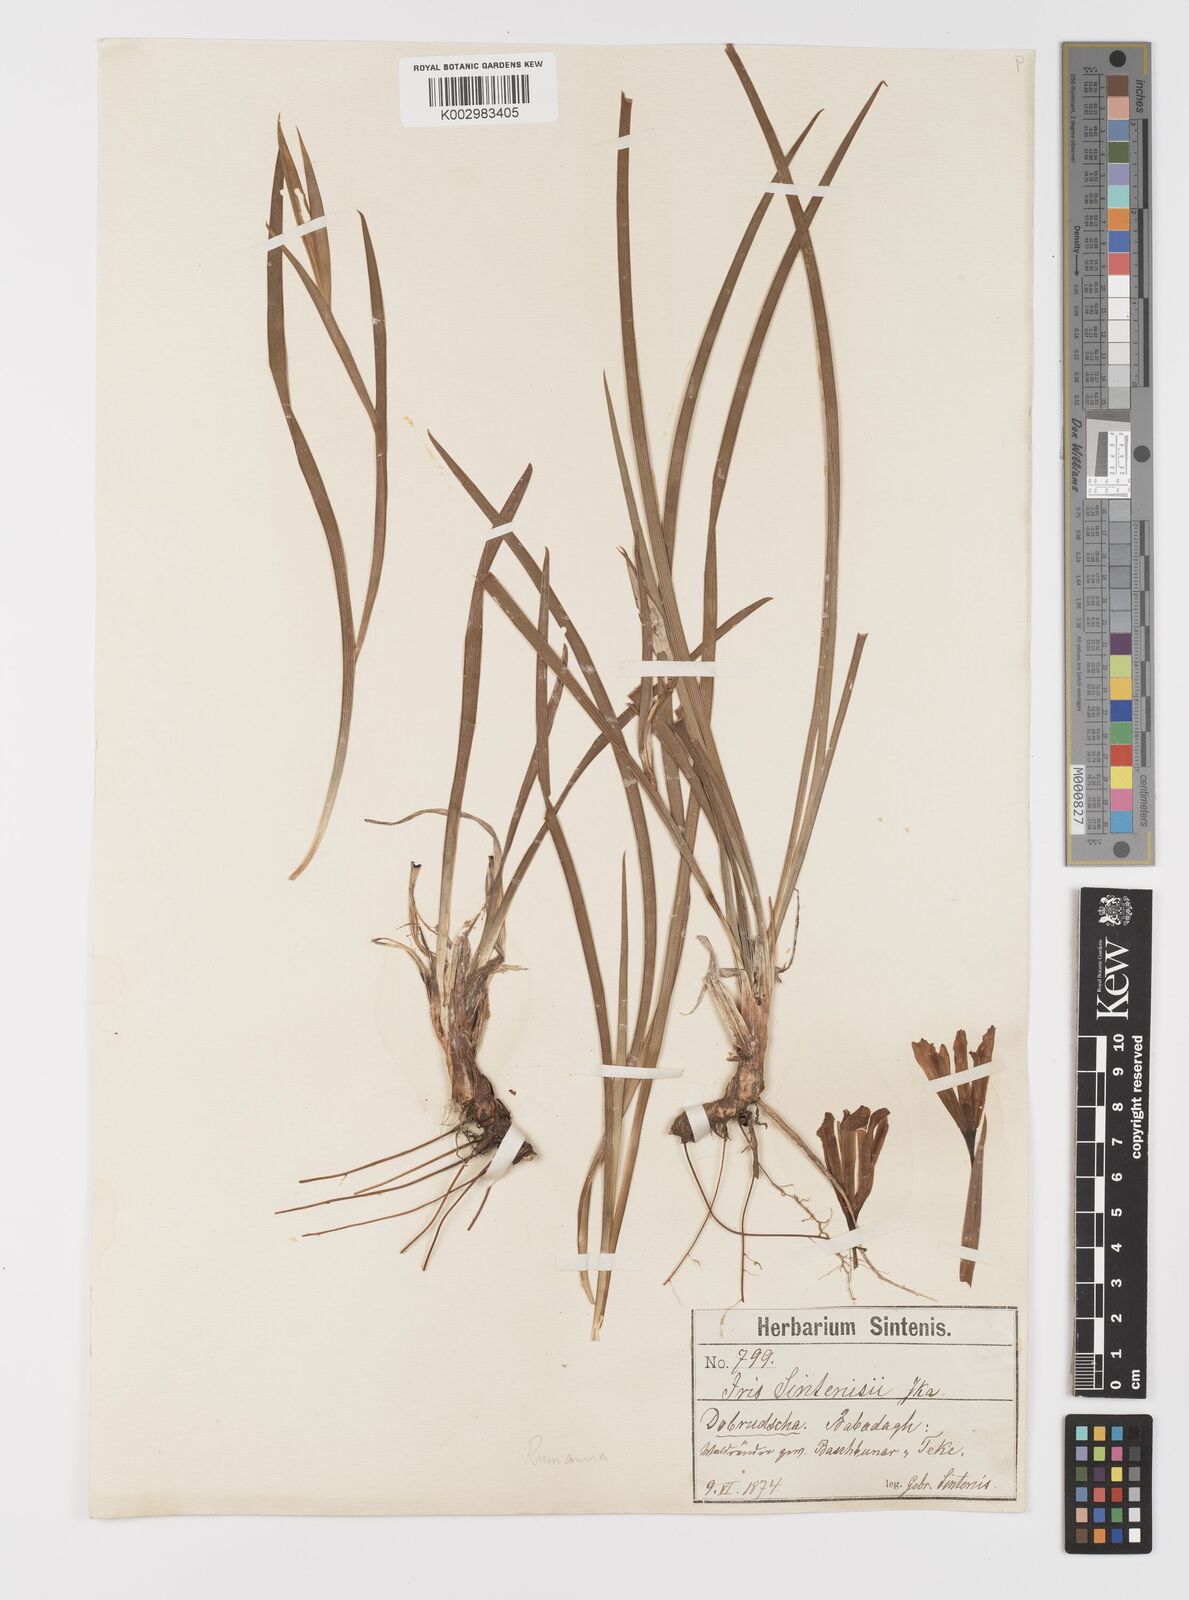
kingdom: Plantae
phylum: Tracheophyta
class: Liliopsida
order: Asparagales
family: Iridaceae
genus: Iris
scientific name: Iris sintenisii
